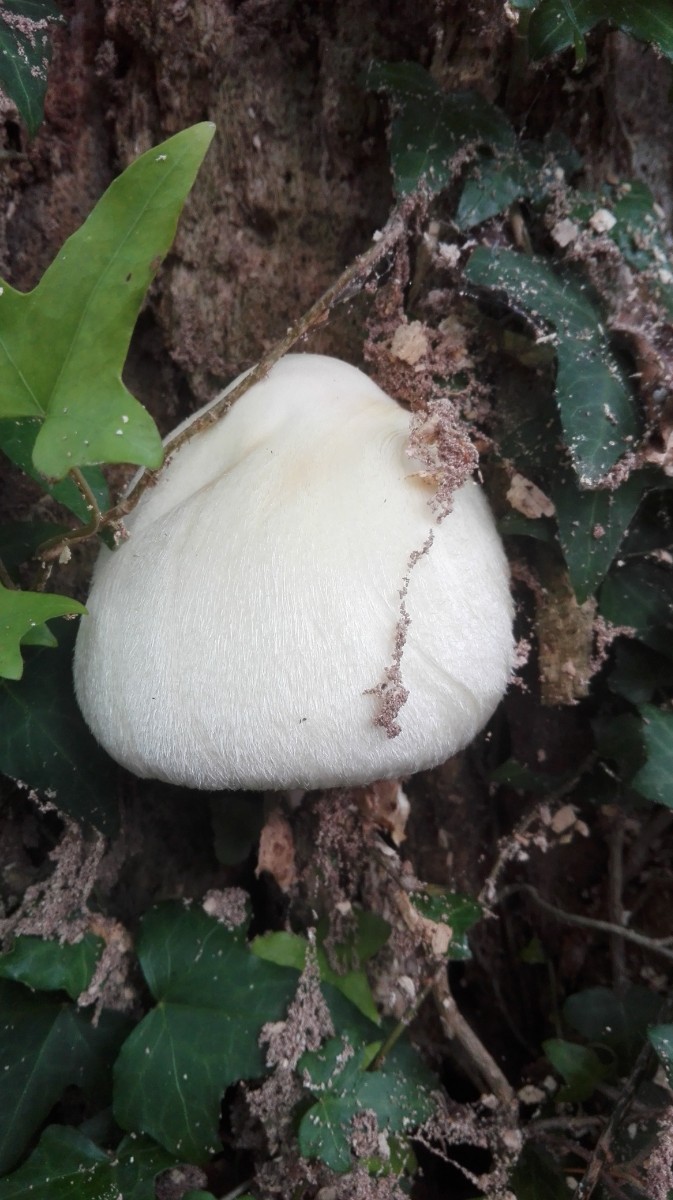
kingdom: Fungi
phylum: Basidiomycota
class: Agaricomycetes
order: Agaricales
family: Pluteaceae
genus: Volvariella
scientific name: Volvariella bombycina
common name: silkehåret posesvamp
